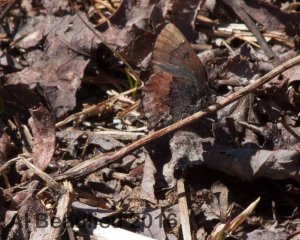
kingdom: Animalia
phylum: Arthropoda
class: Insecta
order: Lepidoptera
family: Lycaenidae
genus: Incisalia
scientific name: Incisalia henrici
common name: Henry's Elfin
